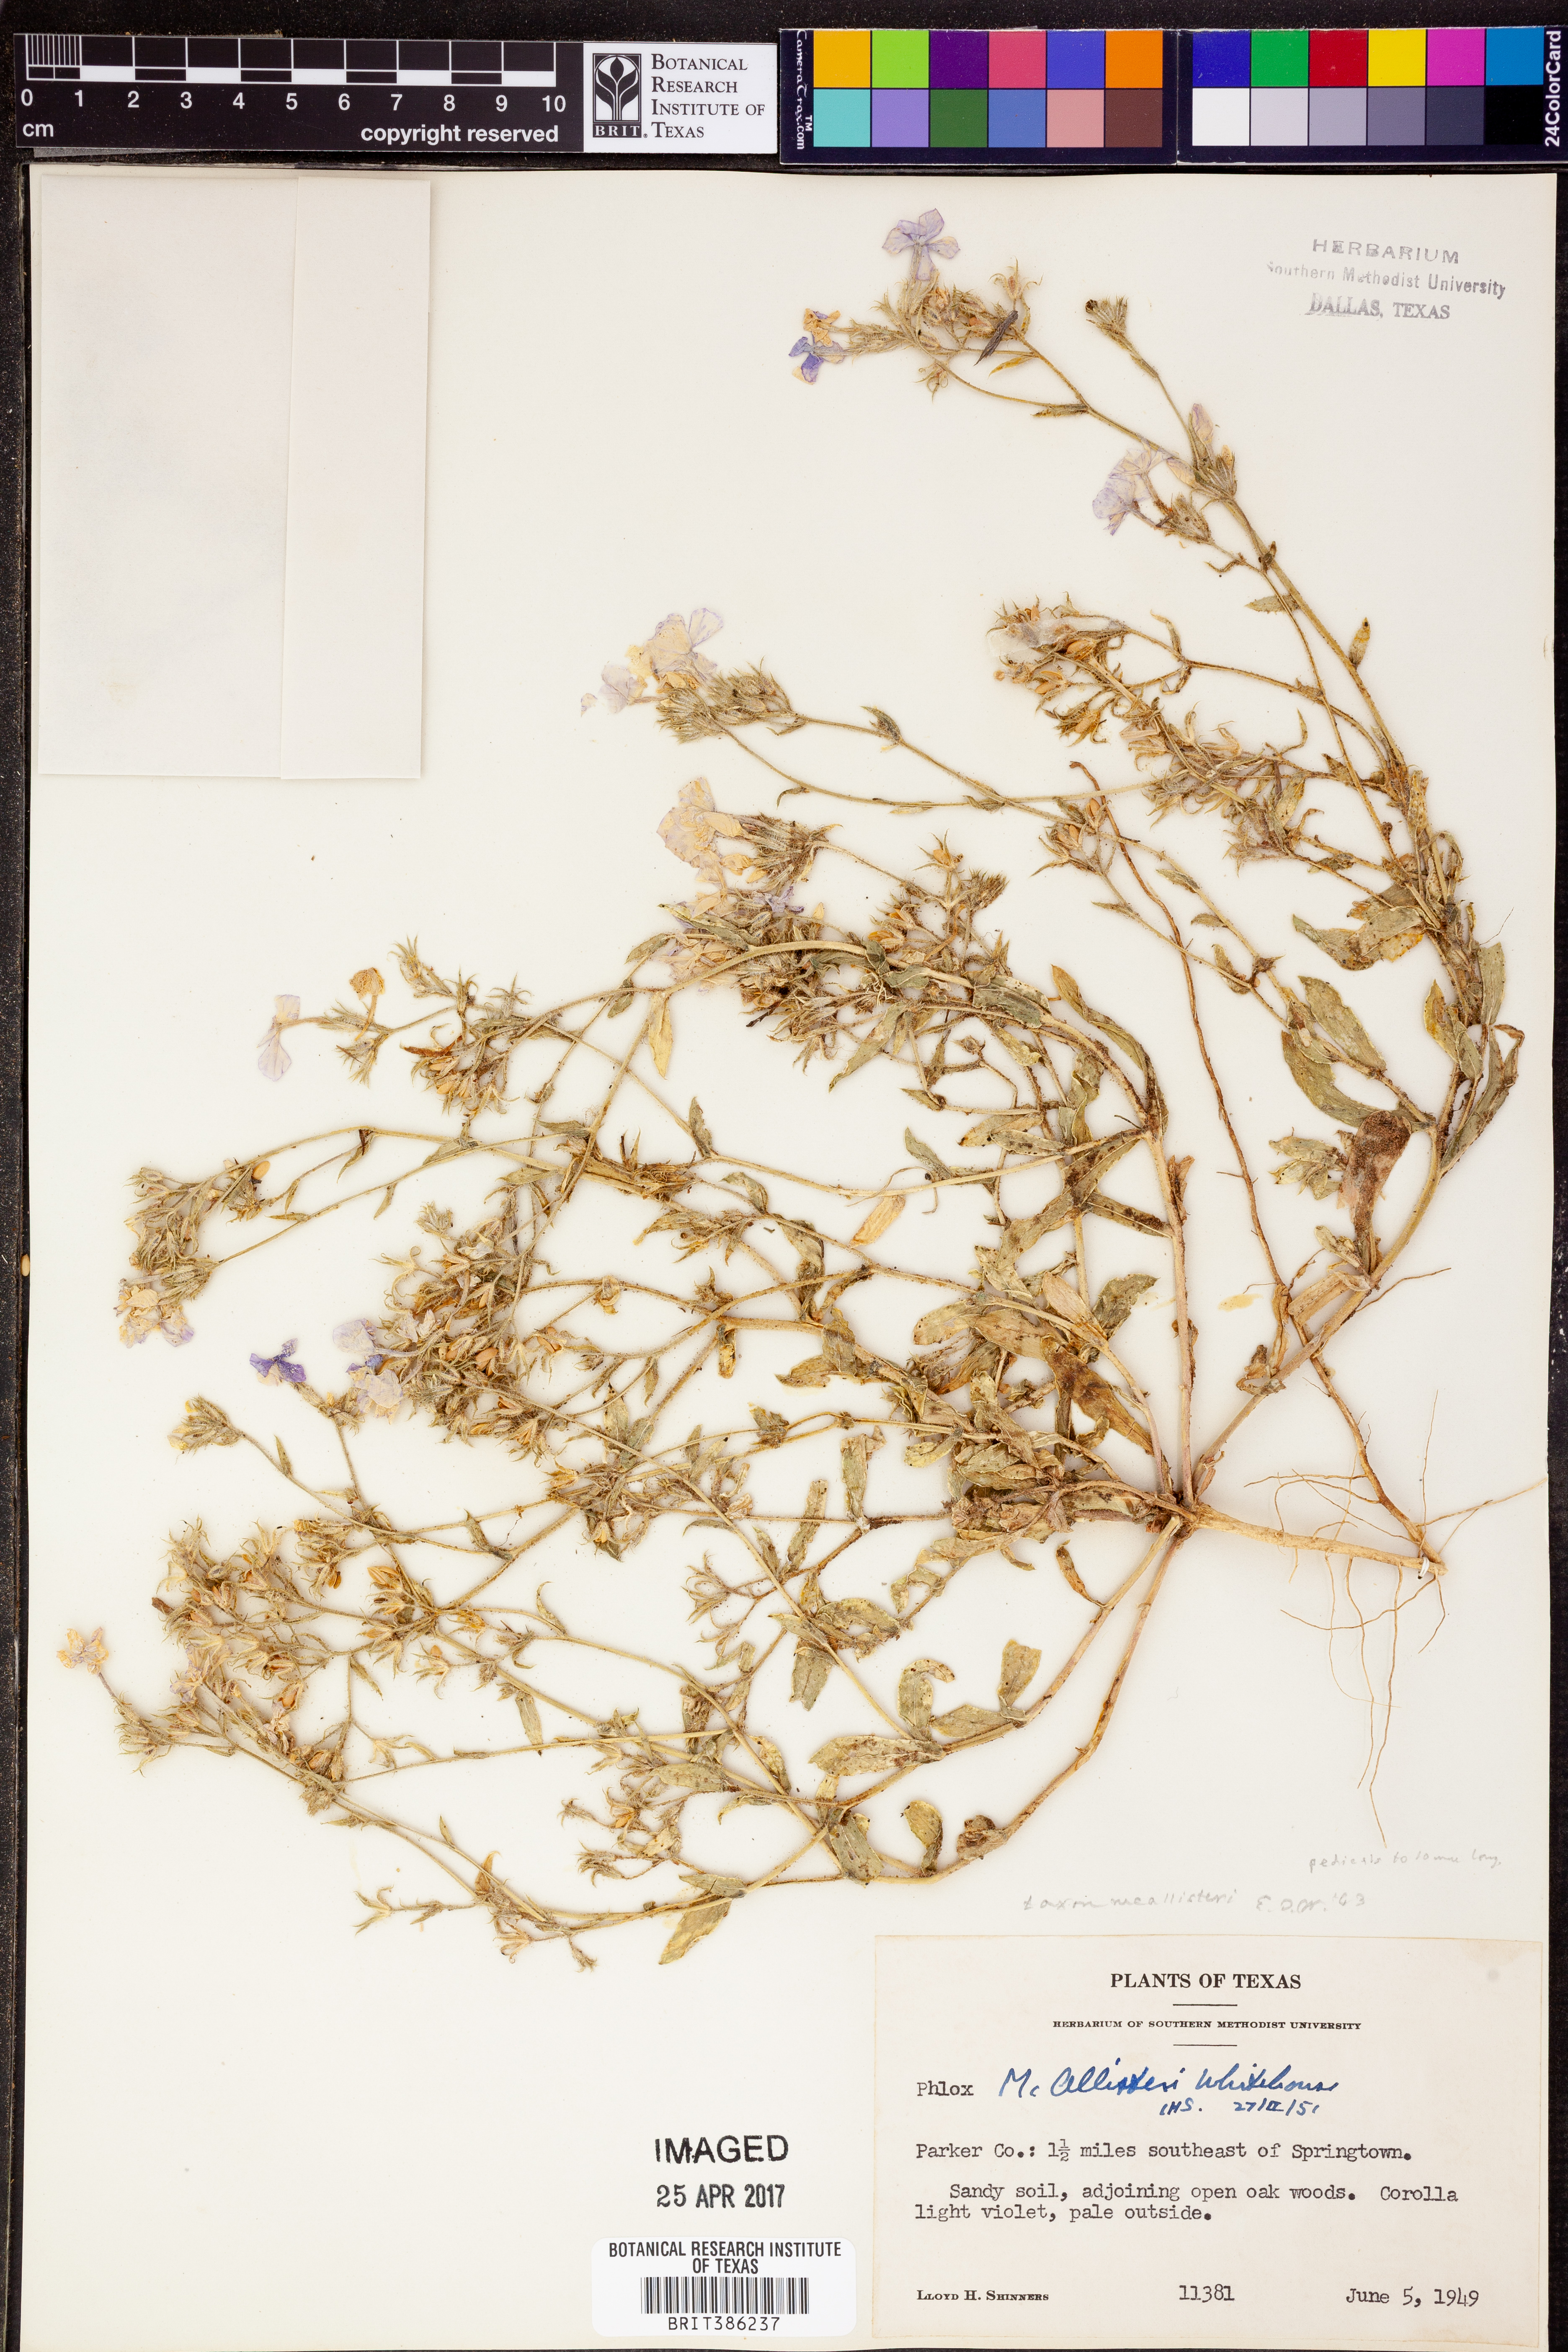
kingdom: Plantae
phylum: Tracheophyta
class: Magnoliopsida
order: Ericales
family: Polemoniaceae
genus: Phlox
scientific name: Phlox drummondii
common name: Drummond's phlox
